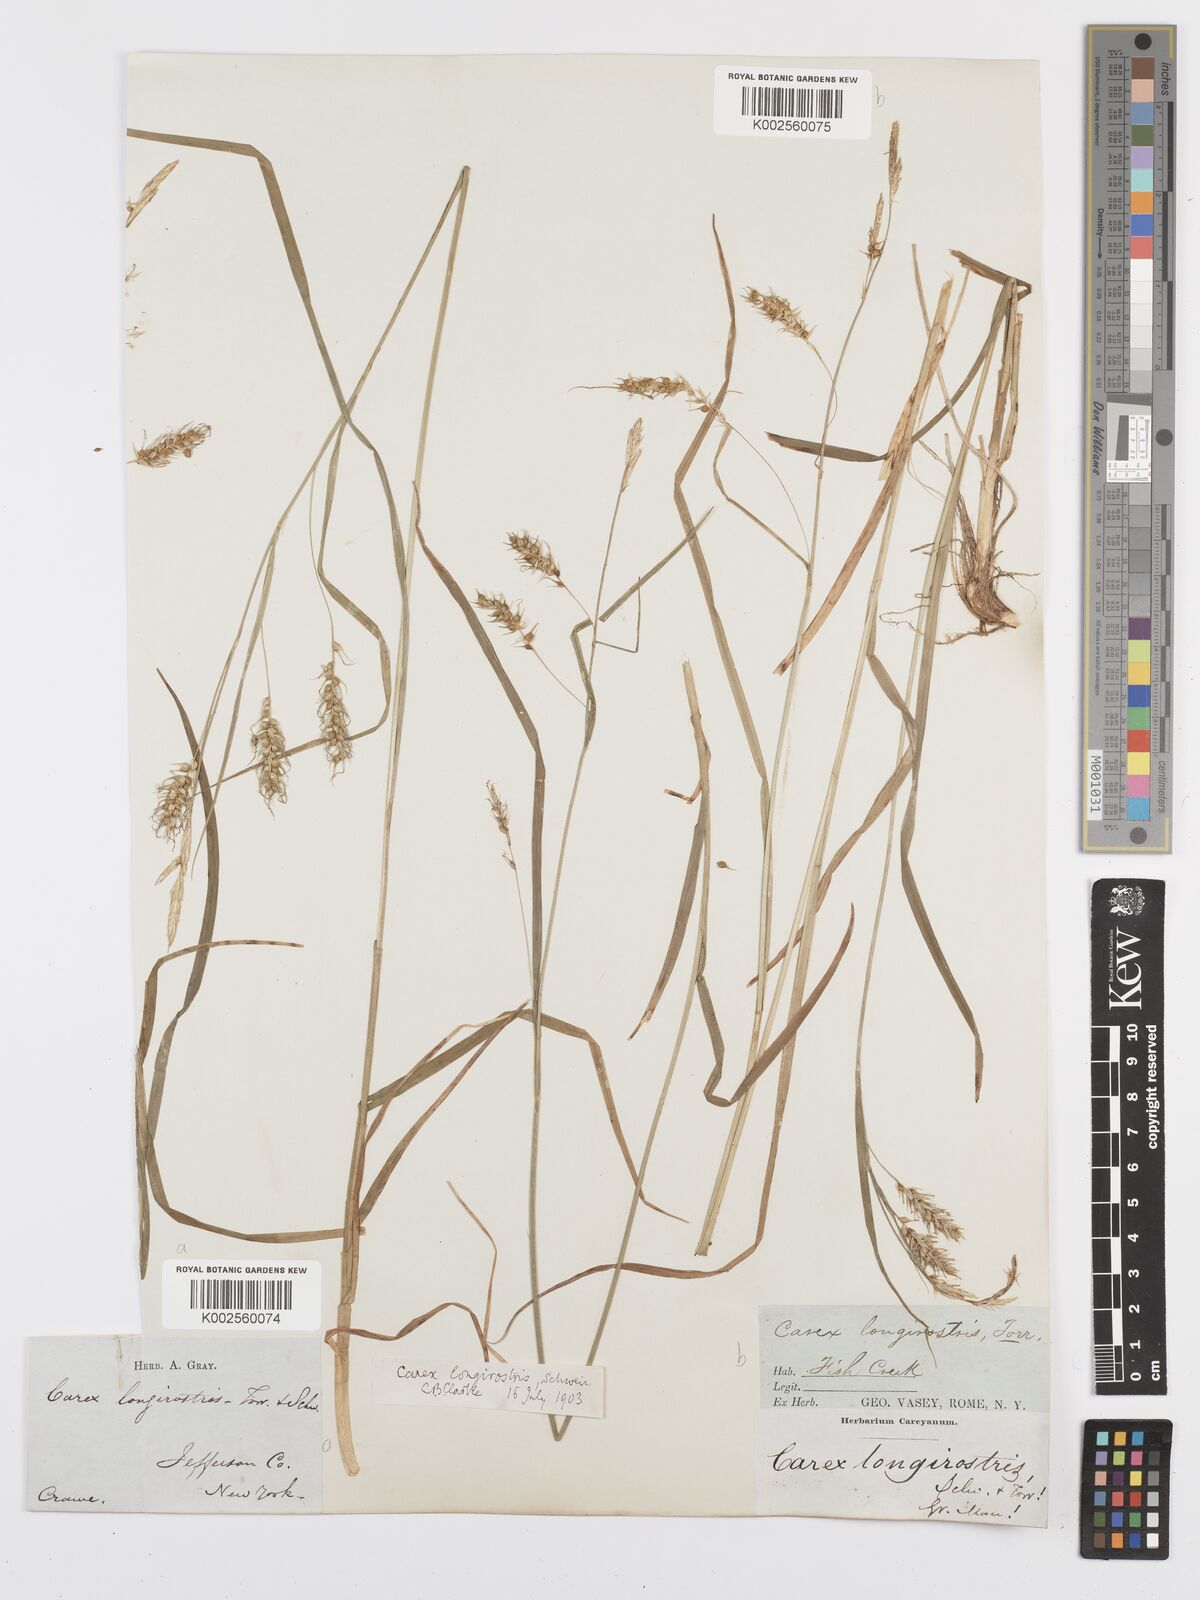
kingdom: Plantae
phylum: Tracheophyta
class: Liliopsida
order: Poales
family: Cyperaceae
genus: Carex
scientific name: Carex sprengelii
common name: Long-beaked sedge
